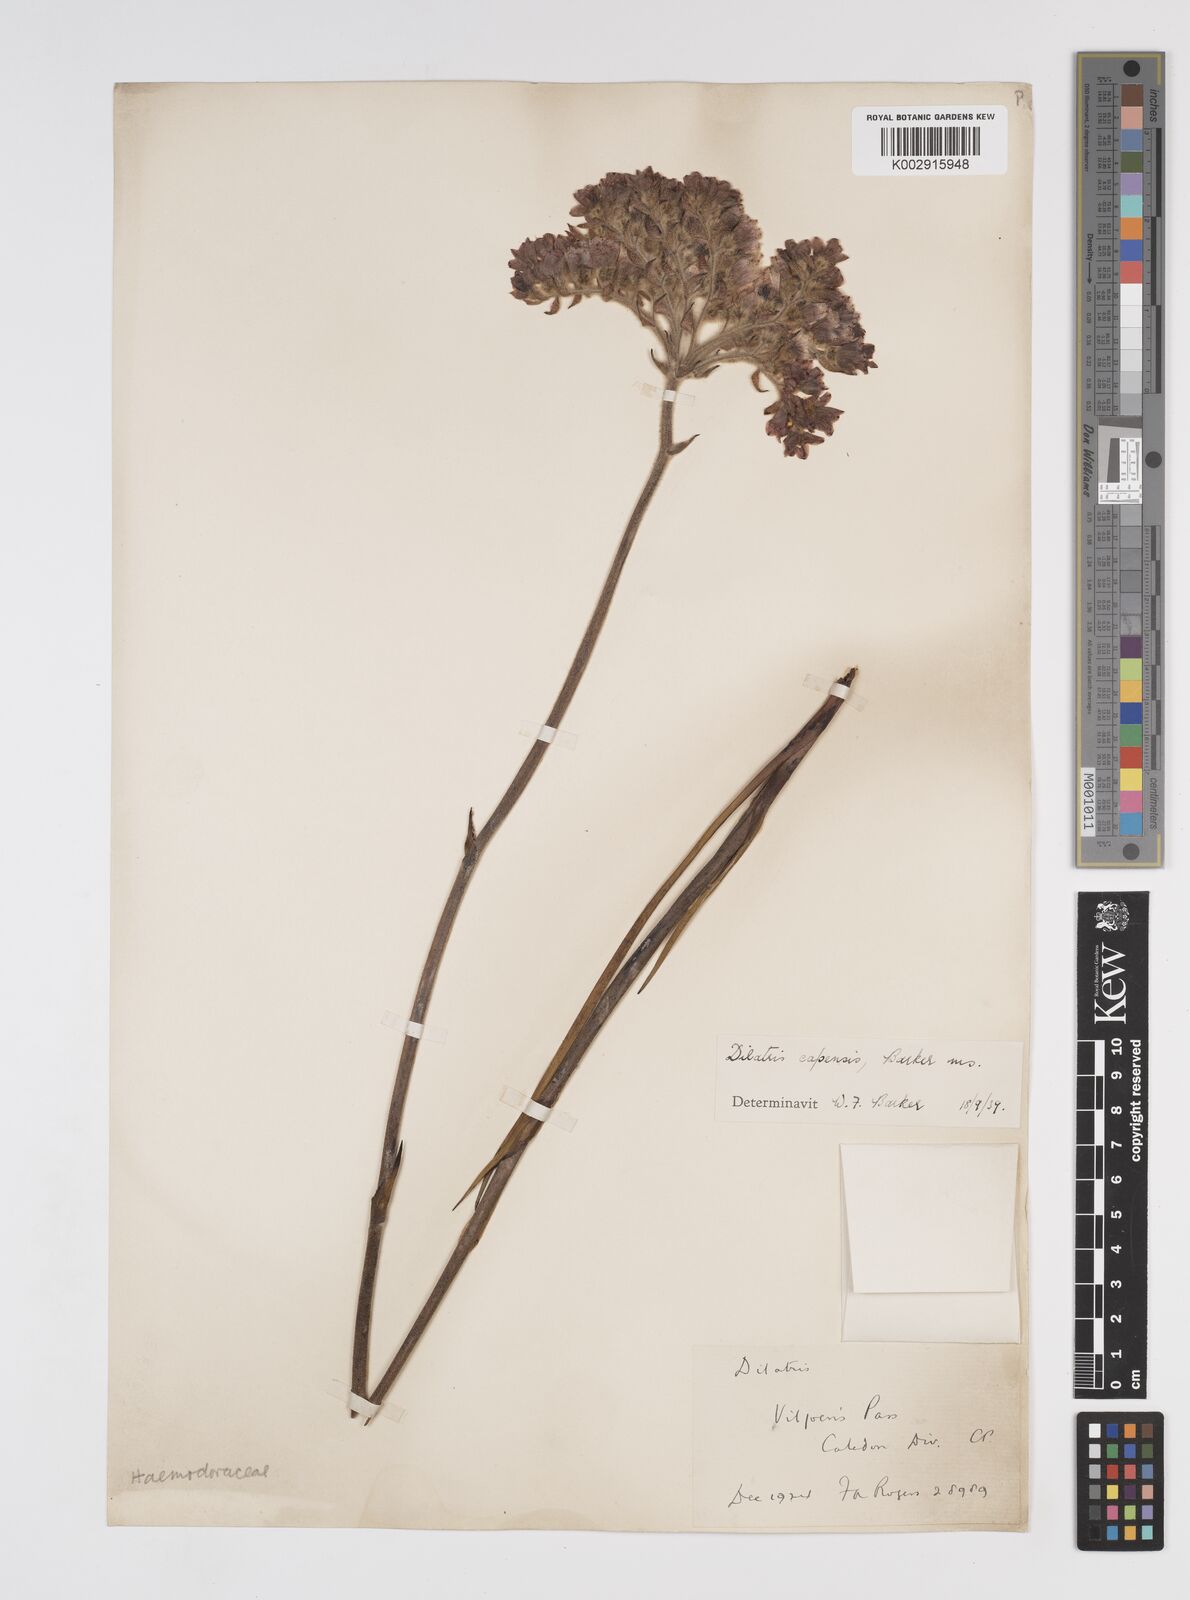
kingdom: Plantae
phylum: Tracheophyta
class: Liliopsida
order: Commelinales
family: Haemodoraceae
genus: Dilatris
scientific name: Dilatris pillansii
